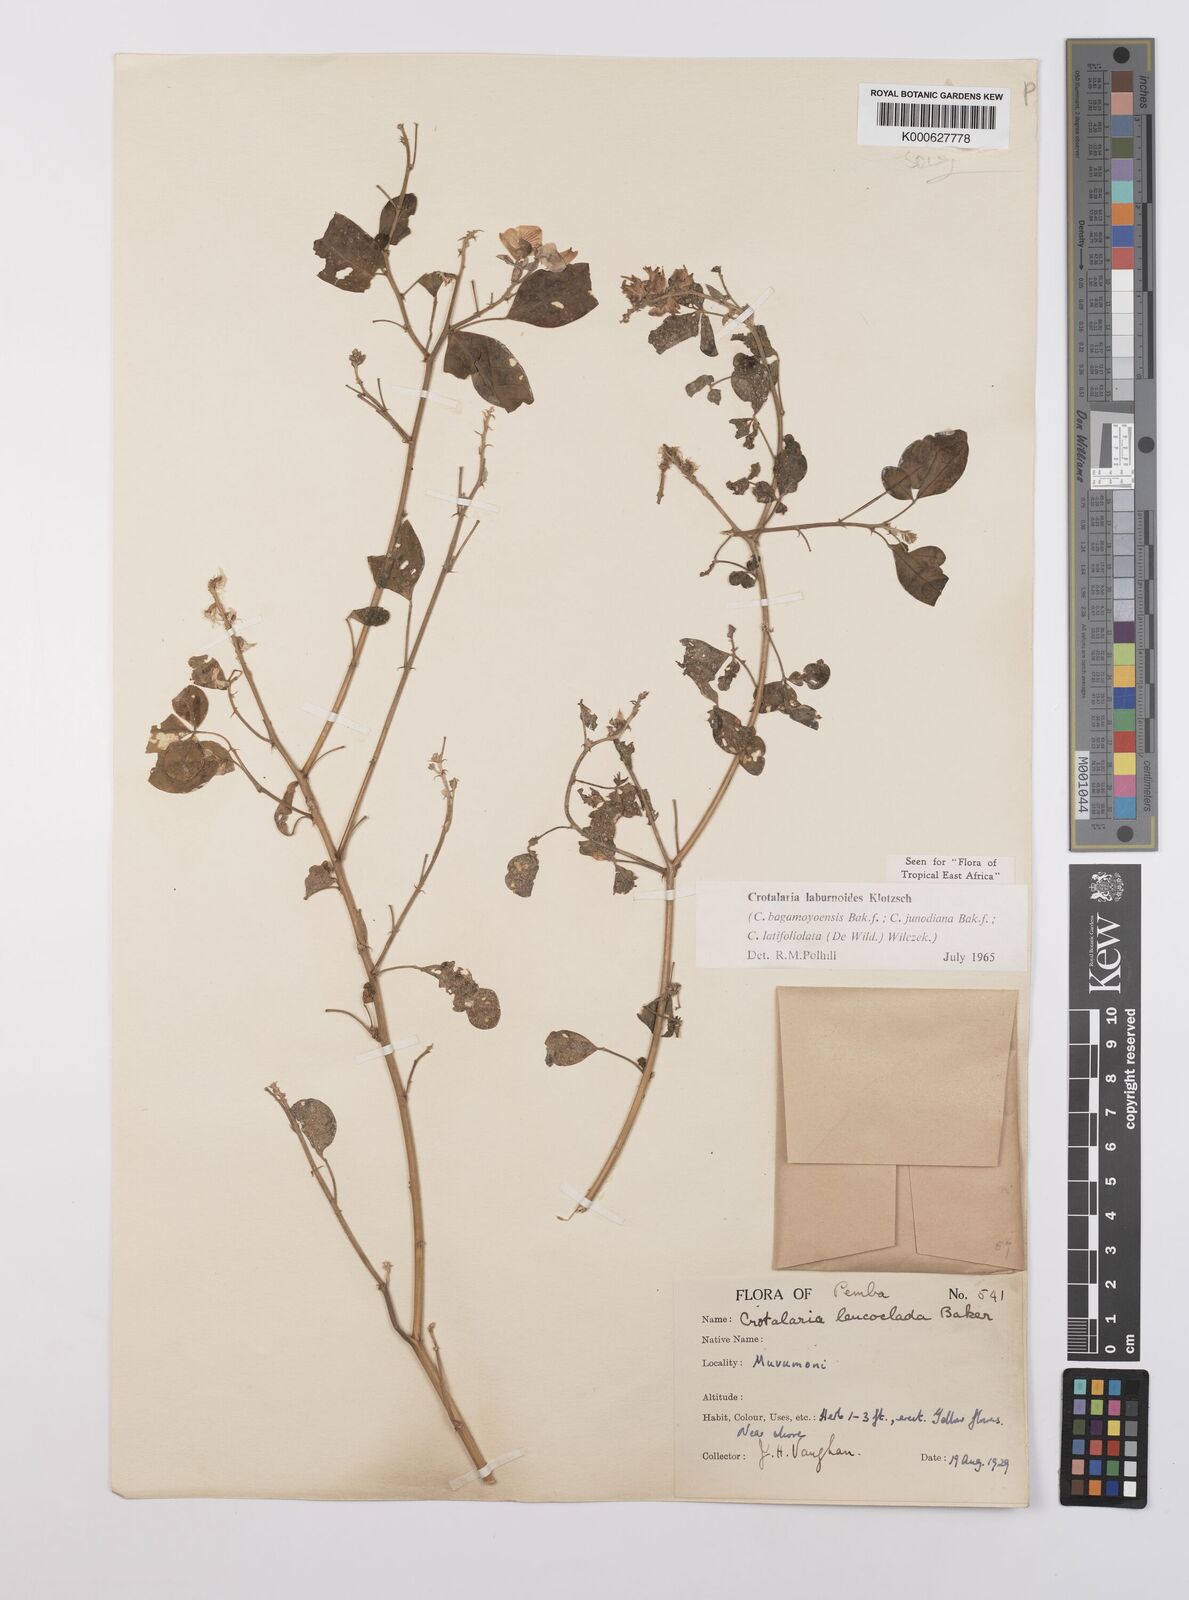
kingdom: Plantae
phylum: Tracheophyta
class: Magnoliopsida
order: Fabales
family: Fabaceae
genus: Crotalaria
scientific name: Crotalaria laburnoides
